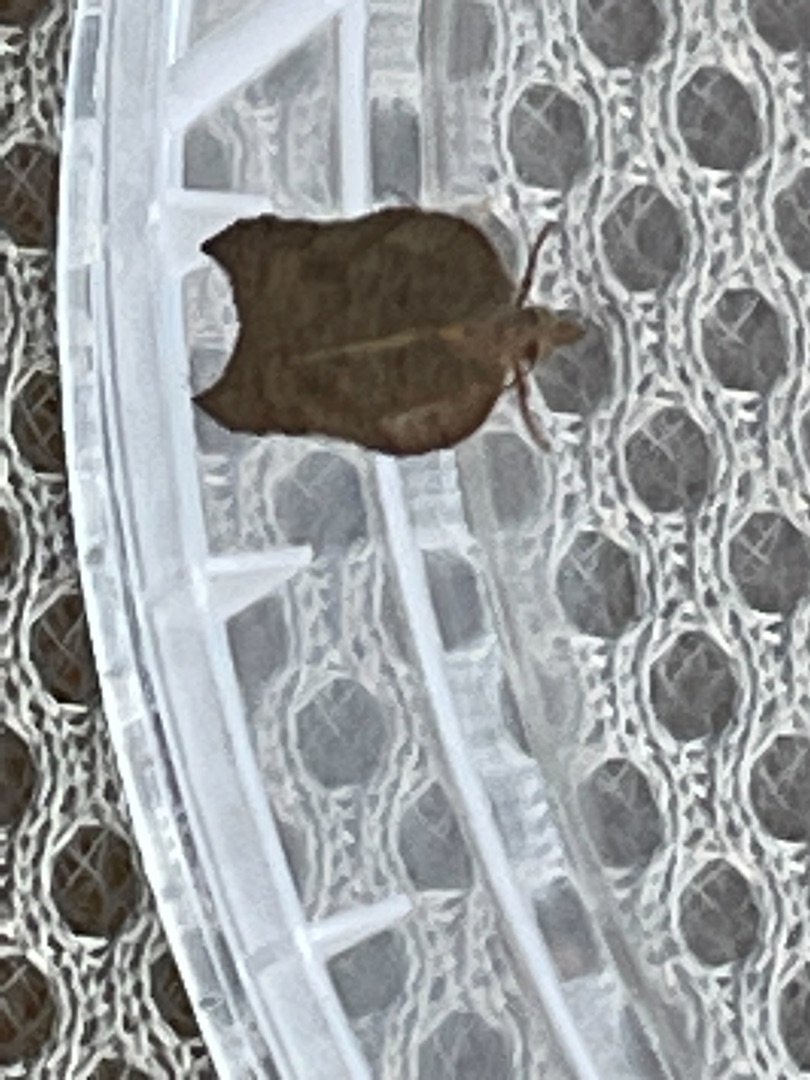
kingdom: Animalia
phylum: Arthropoda
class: Insecta
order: Lepidoptera
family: Tortricidae
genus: Acleris
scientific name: Acleris emargana
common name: Konkav pilevikler
